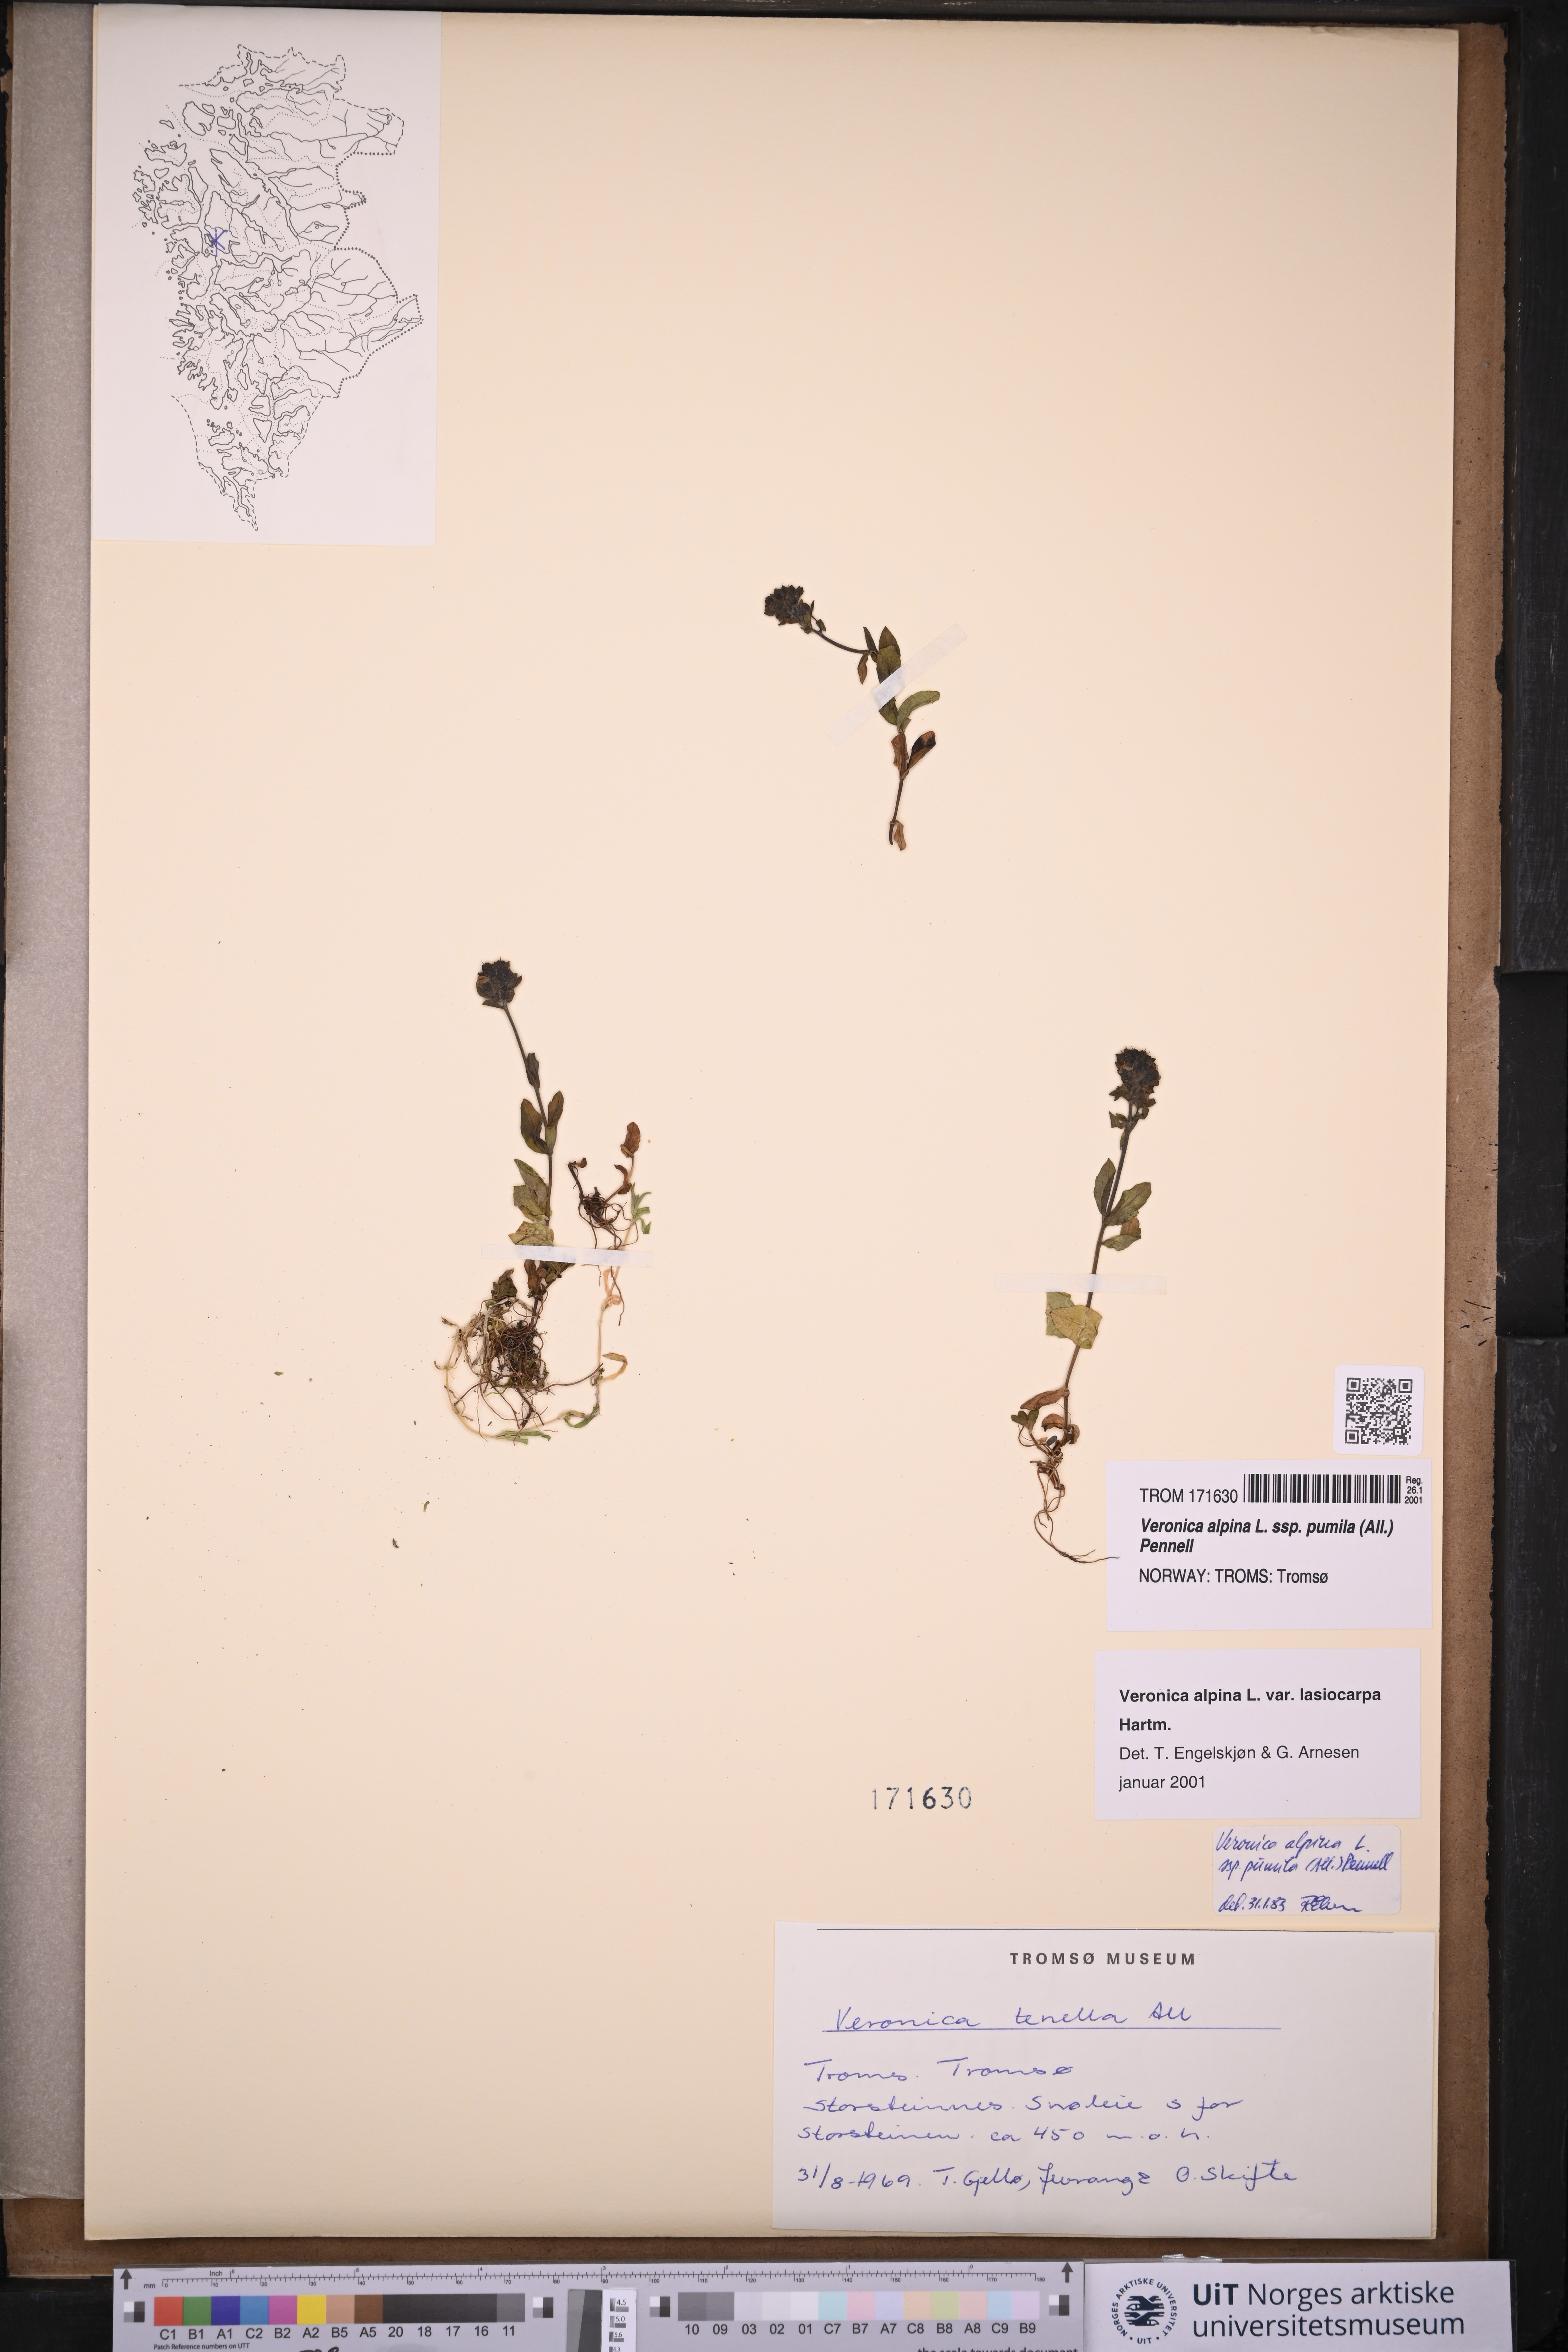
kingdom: Plantae
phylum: Tracheophyta
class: Magnoliopsida
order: Lamiales
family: Plantaginaceae
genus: Veronica
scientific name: Veronica alpina
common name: Alpine speedwell
